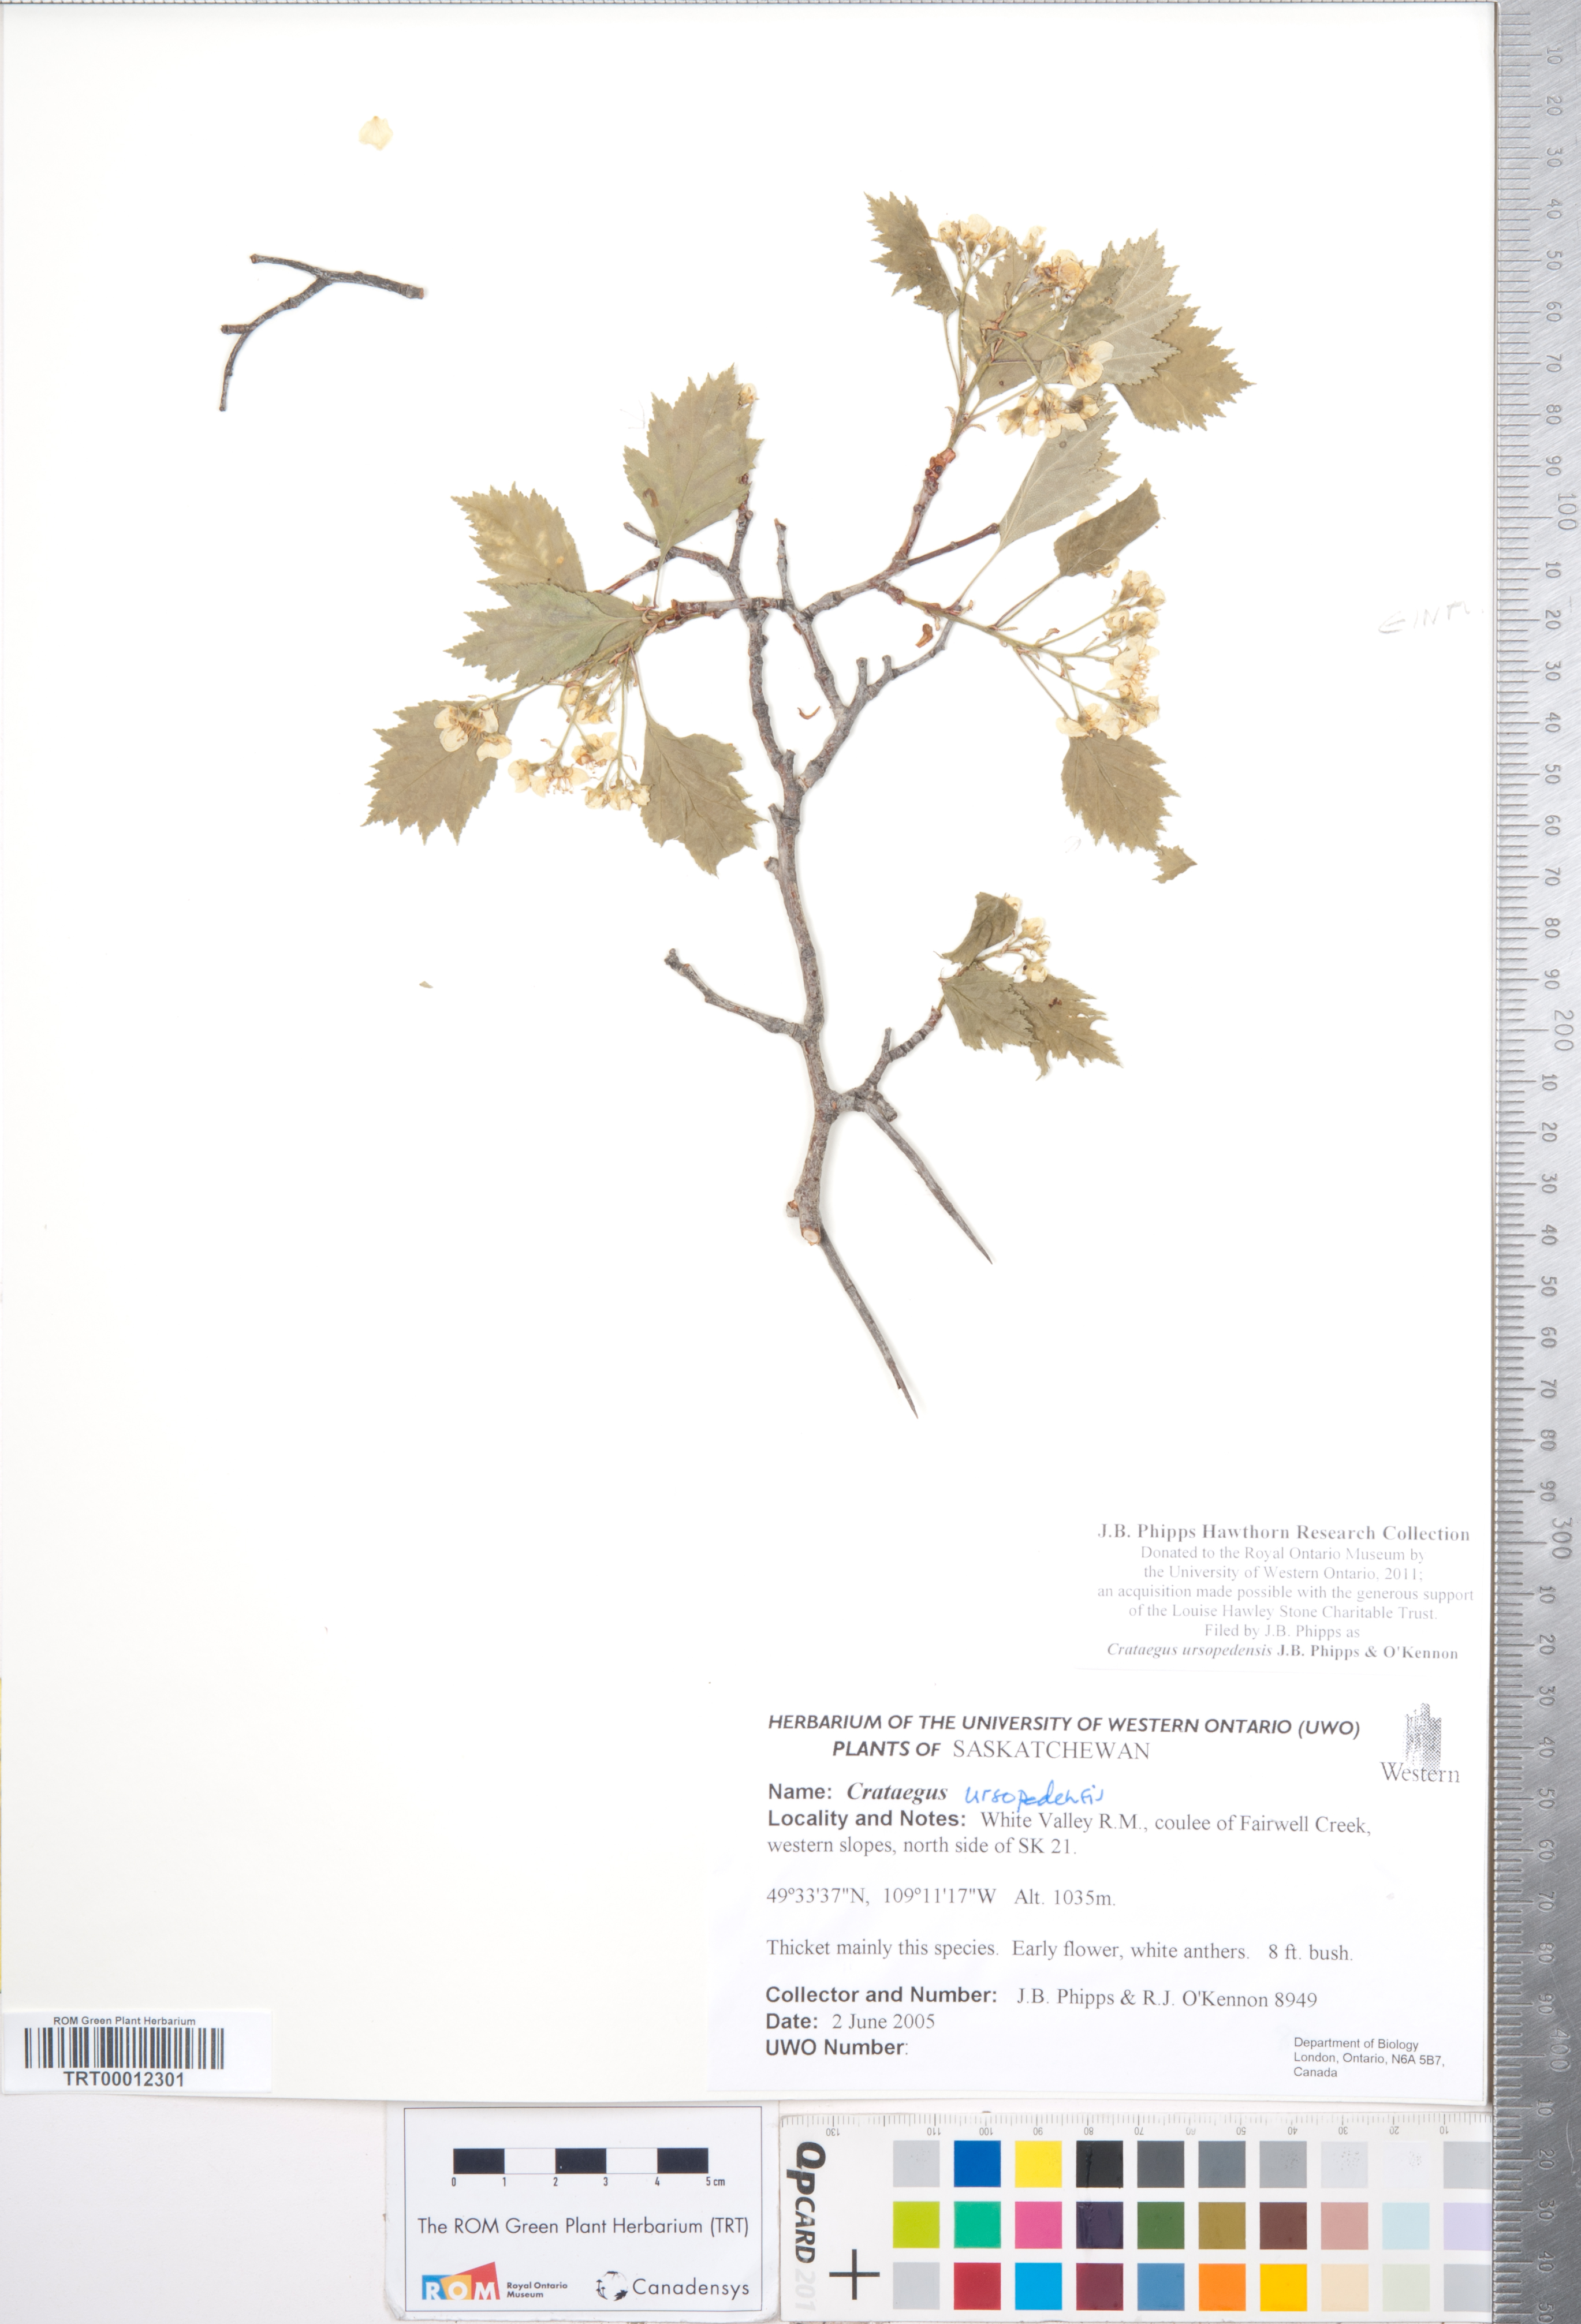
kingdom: Plantae
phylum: Tracheophyta
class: Magnoliopsida
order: Rosales
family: Rosaceae
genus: Crataegus
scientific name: Crataegus ursopedensis
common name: Bears paw hawthorn
